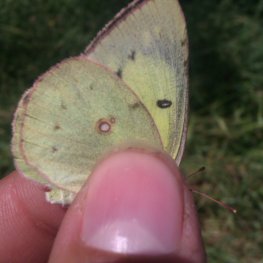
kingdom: Animalia
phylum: Arthropoda
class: Insecta
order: Lepidoptera
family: Pieridae
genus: Colias
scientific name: Colias philodice
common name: Clouded Sulphur
